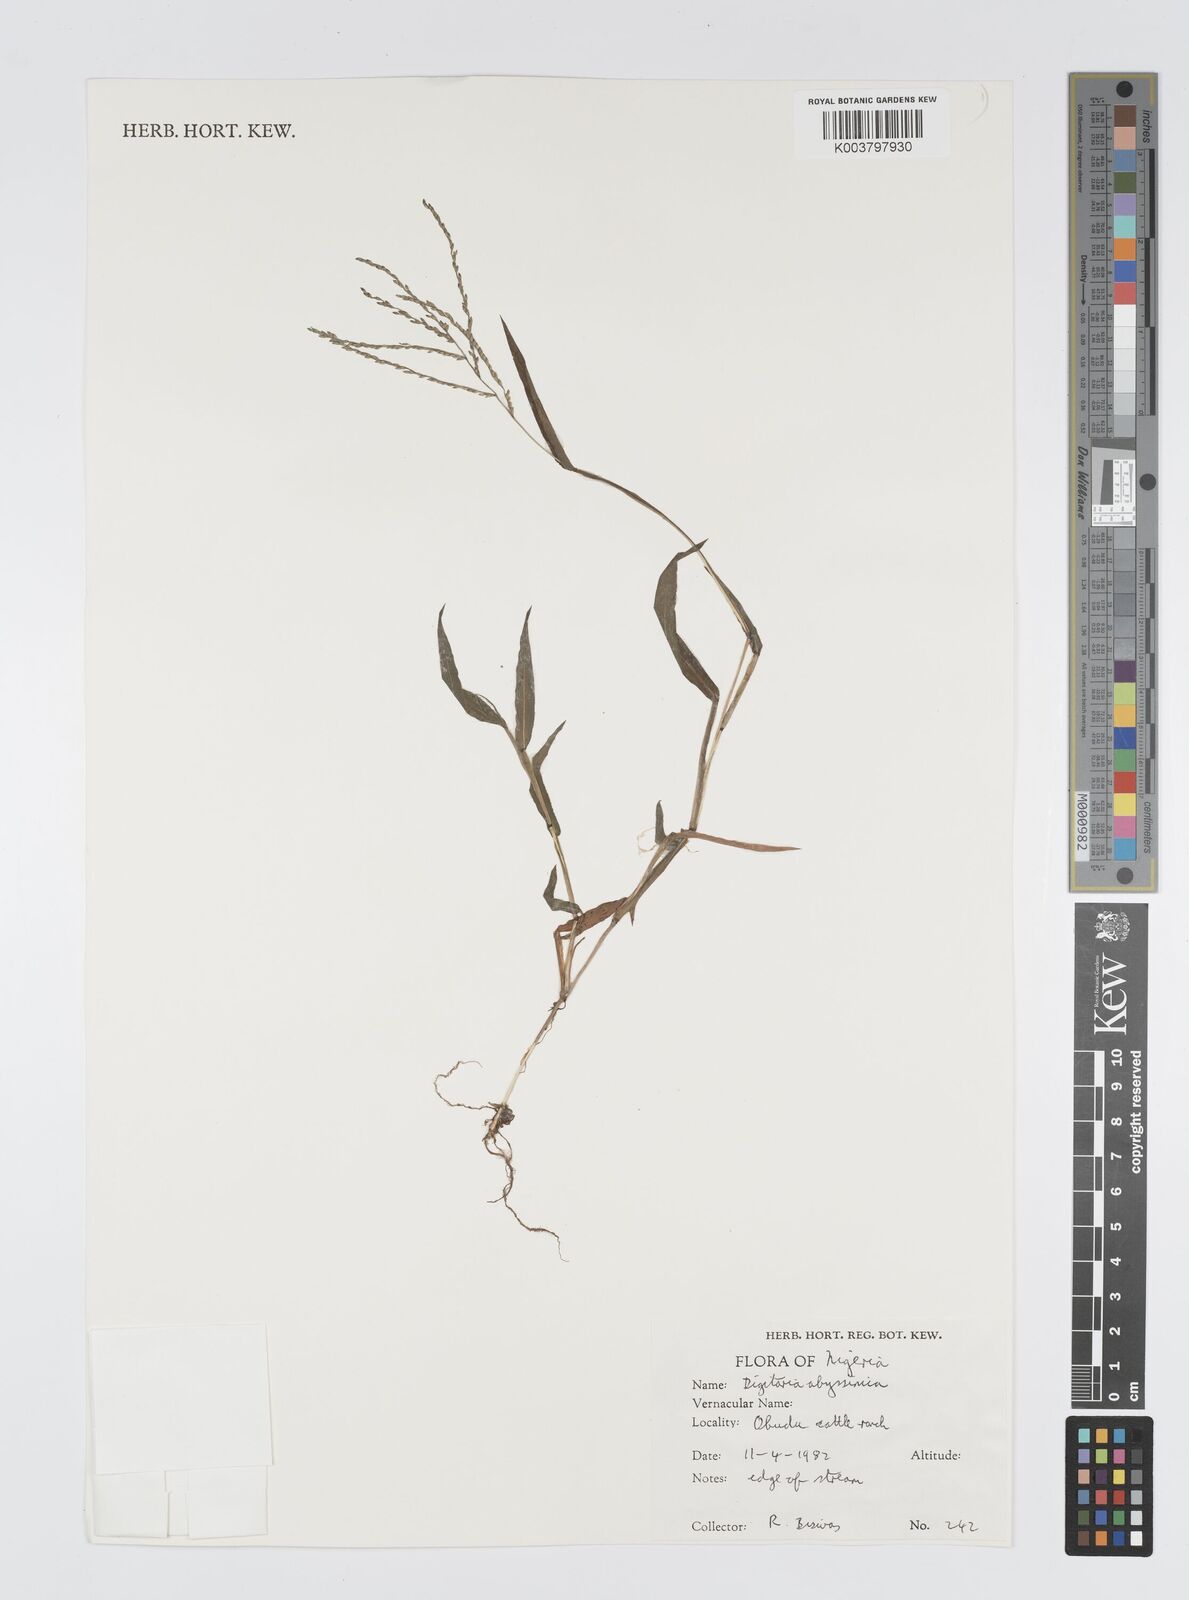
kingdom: Plantae
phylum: Tracheophyta
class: Liliopsida
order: Poales
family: Poaceae
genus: Digitaria
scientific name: Digitaria abyssinica
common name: African couchgrass
